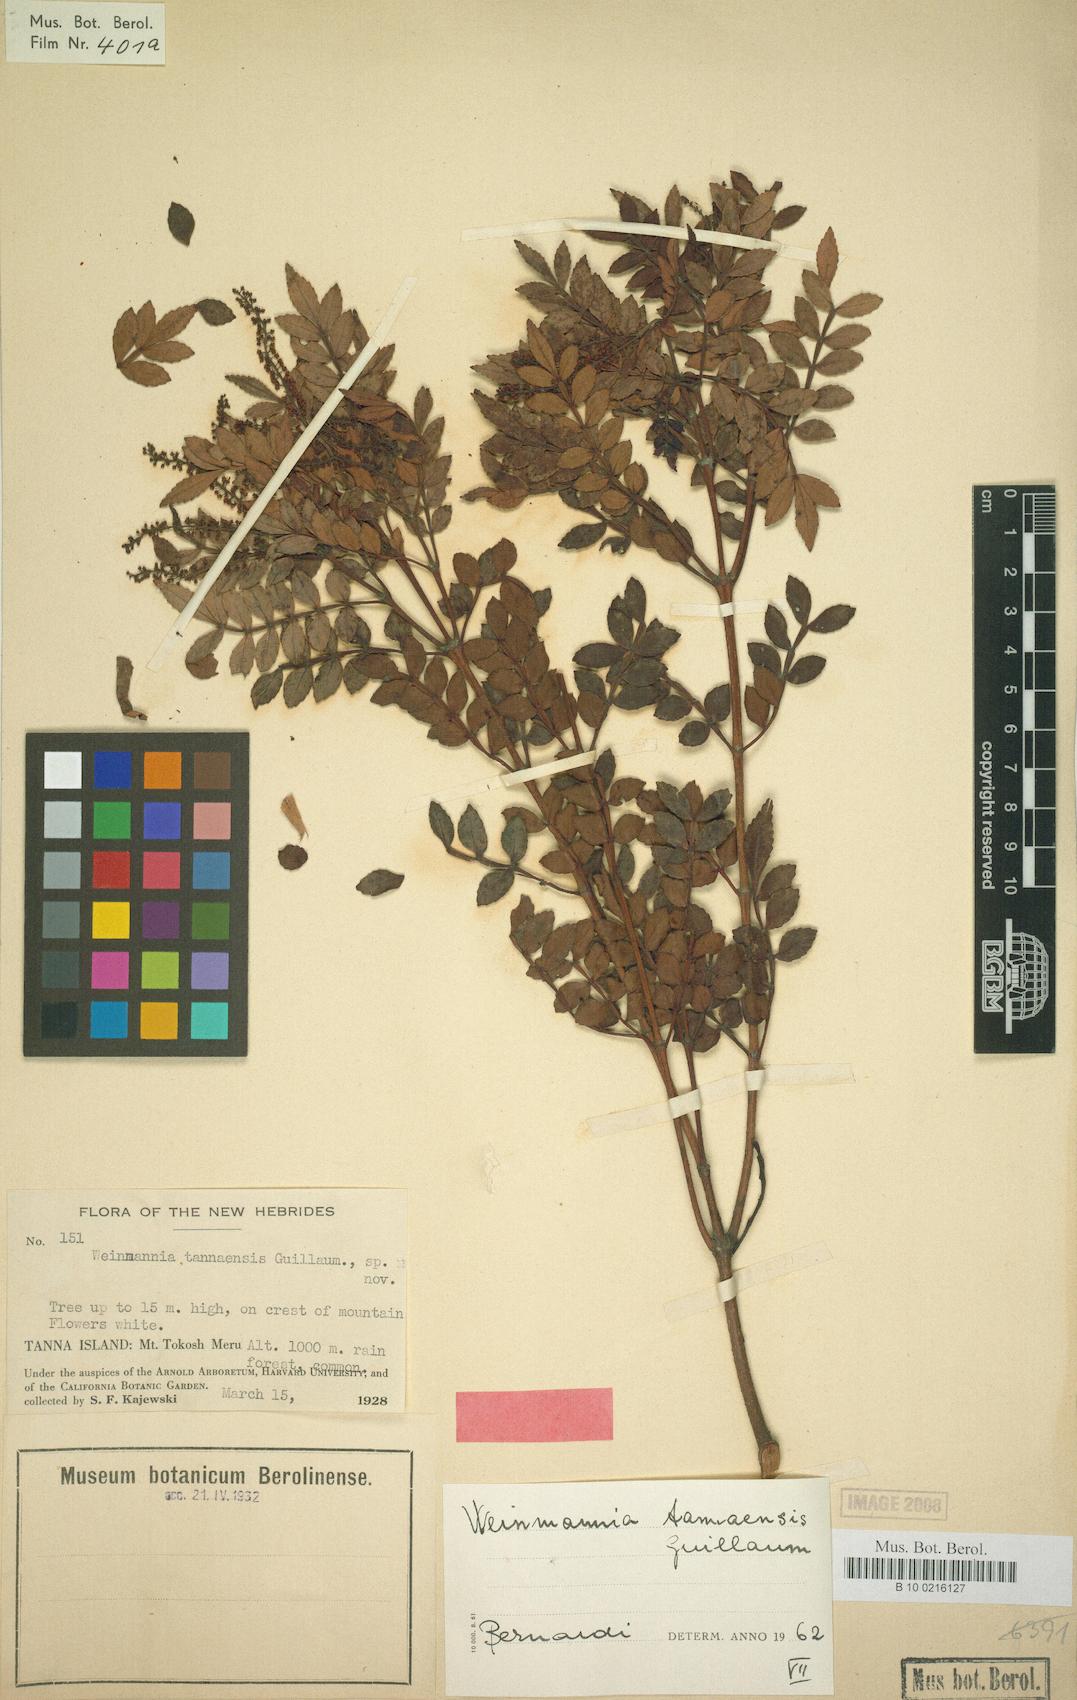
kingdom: Plantae
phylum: Tracheophyta
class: Magnoliopsida
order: Oxalidales
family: Cunoniaceae
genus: Pterophylla
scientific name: Pterophylla denhamii
